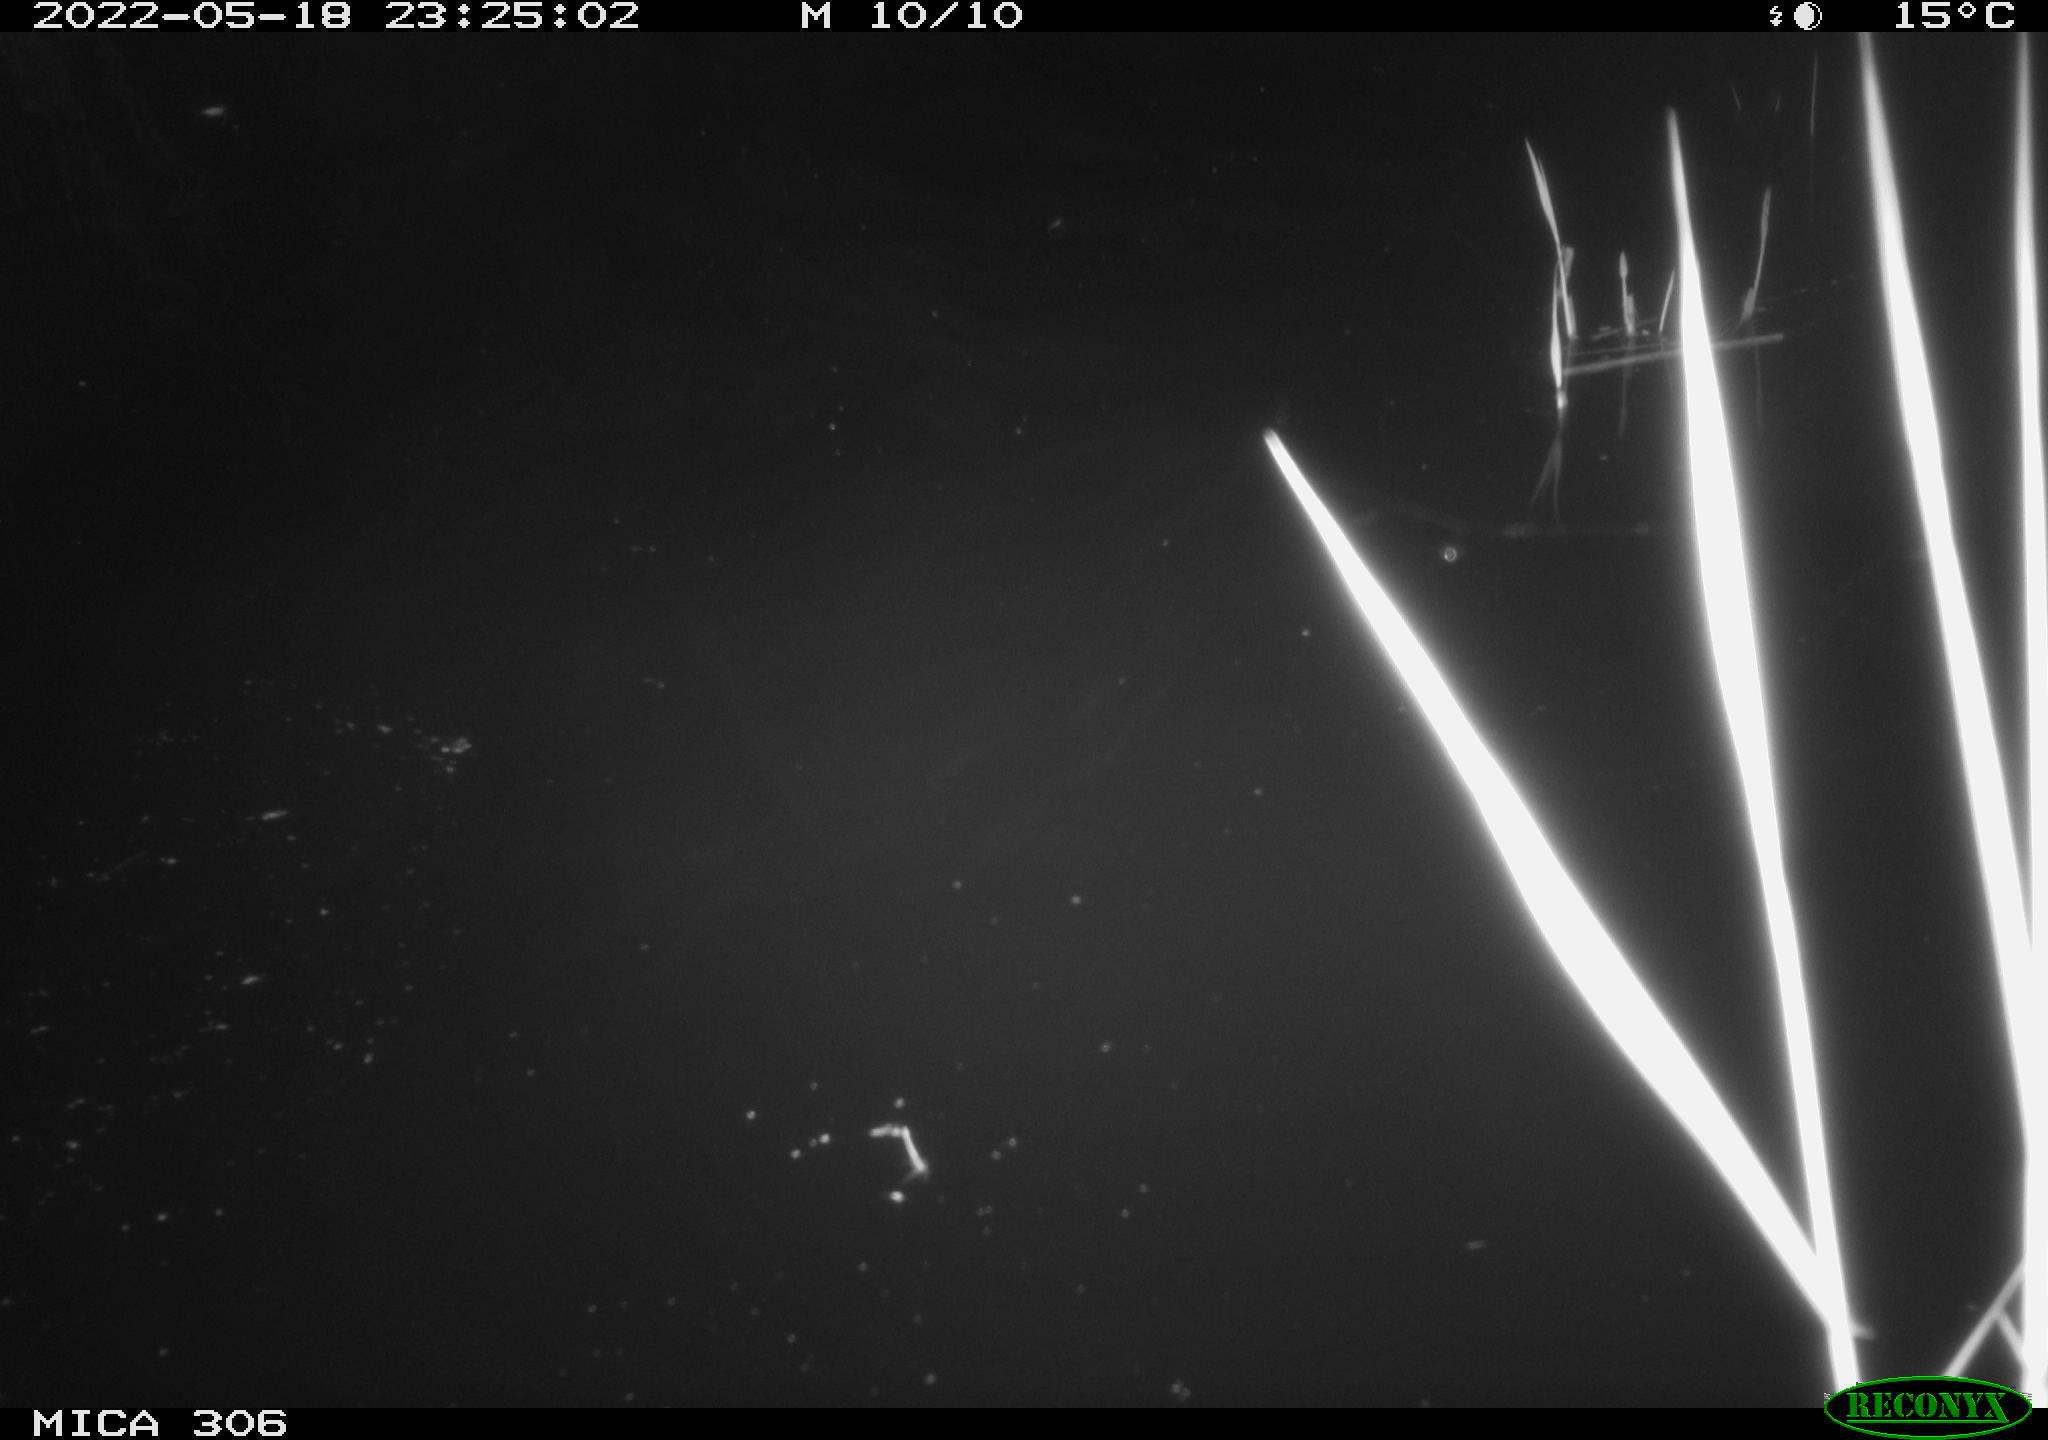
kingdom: Animalia
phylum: Chordata
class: Mammalia
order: Rodentia
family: Cricetidae
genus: Ondatra
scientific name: Ondatra zibethicus
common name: Muskrat
